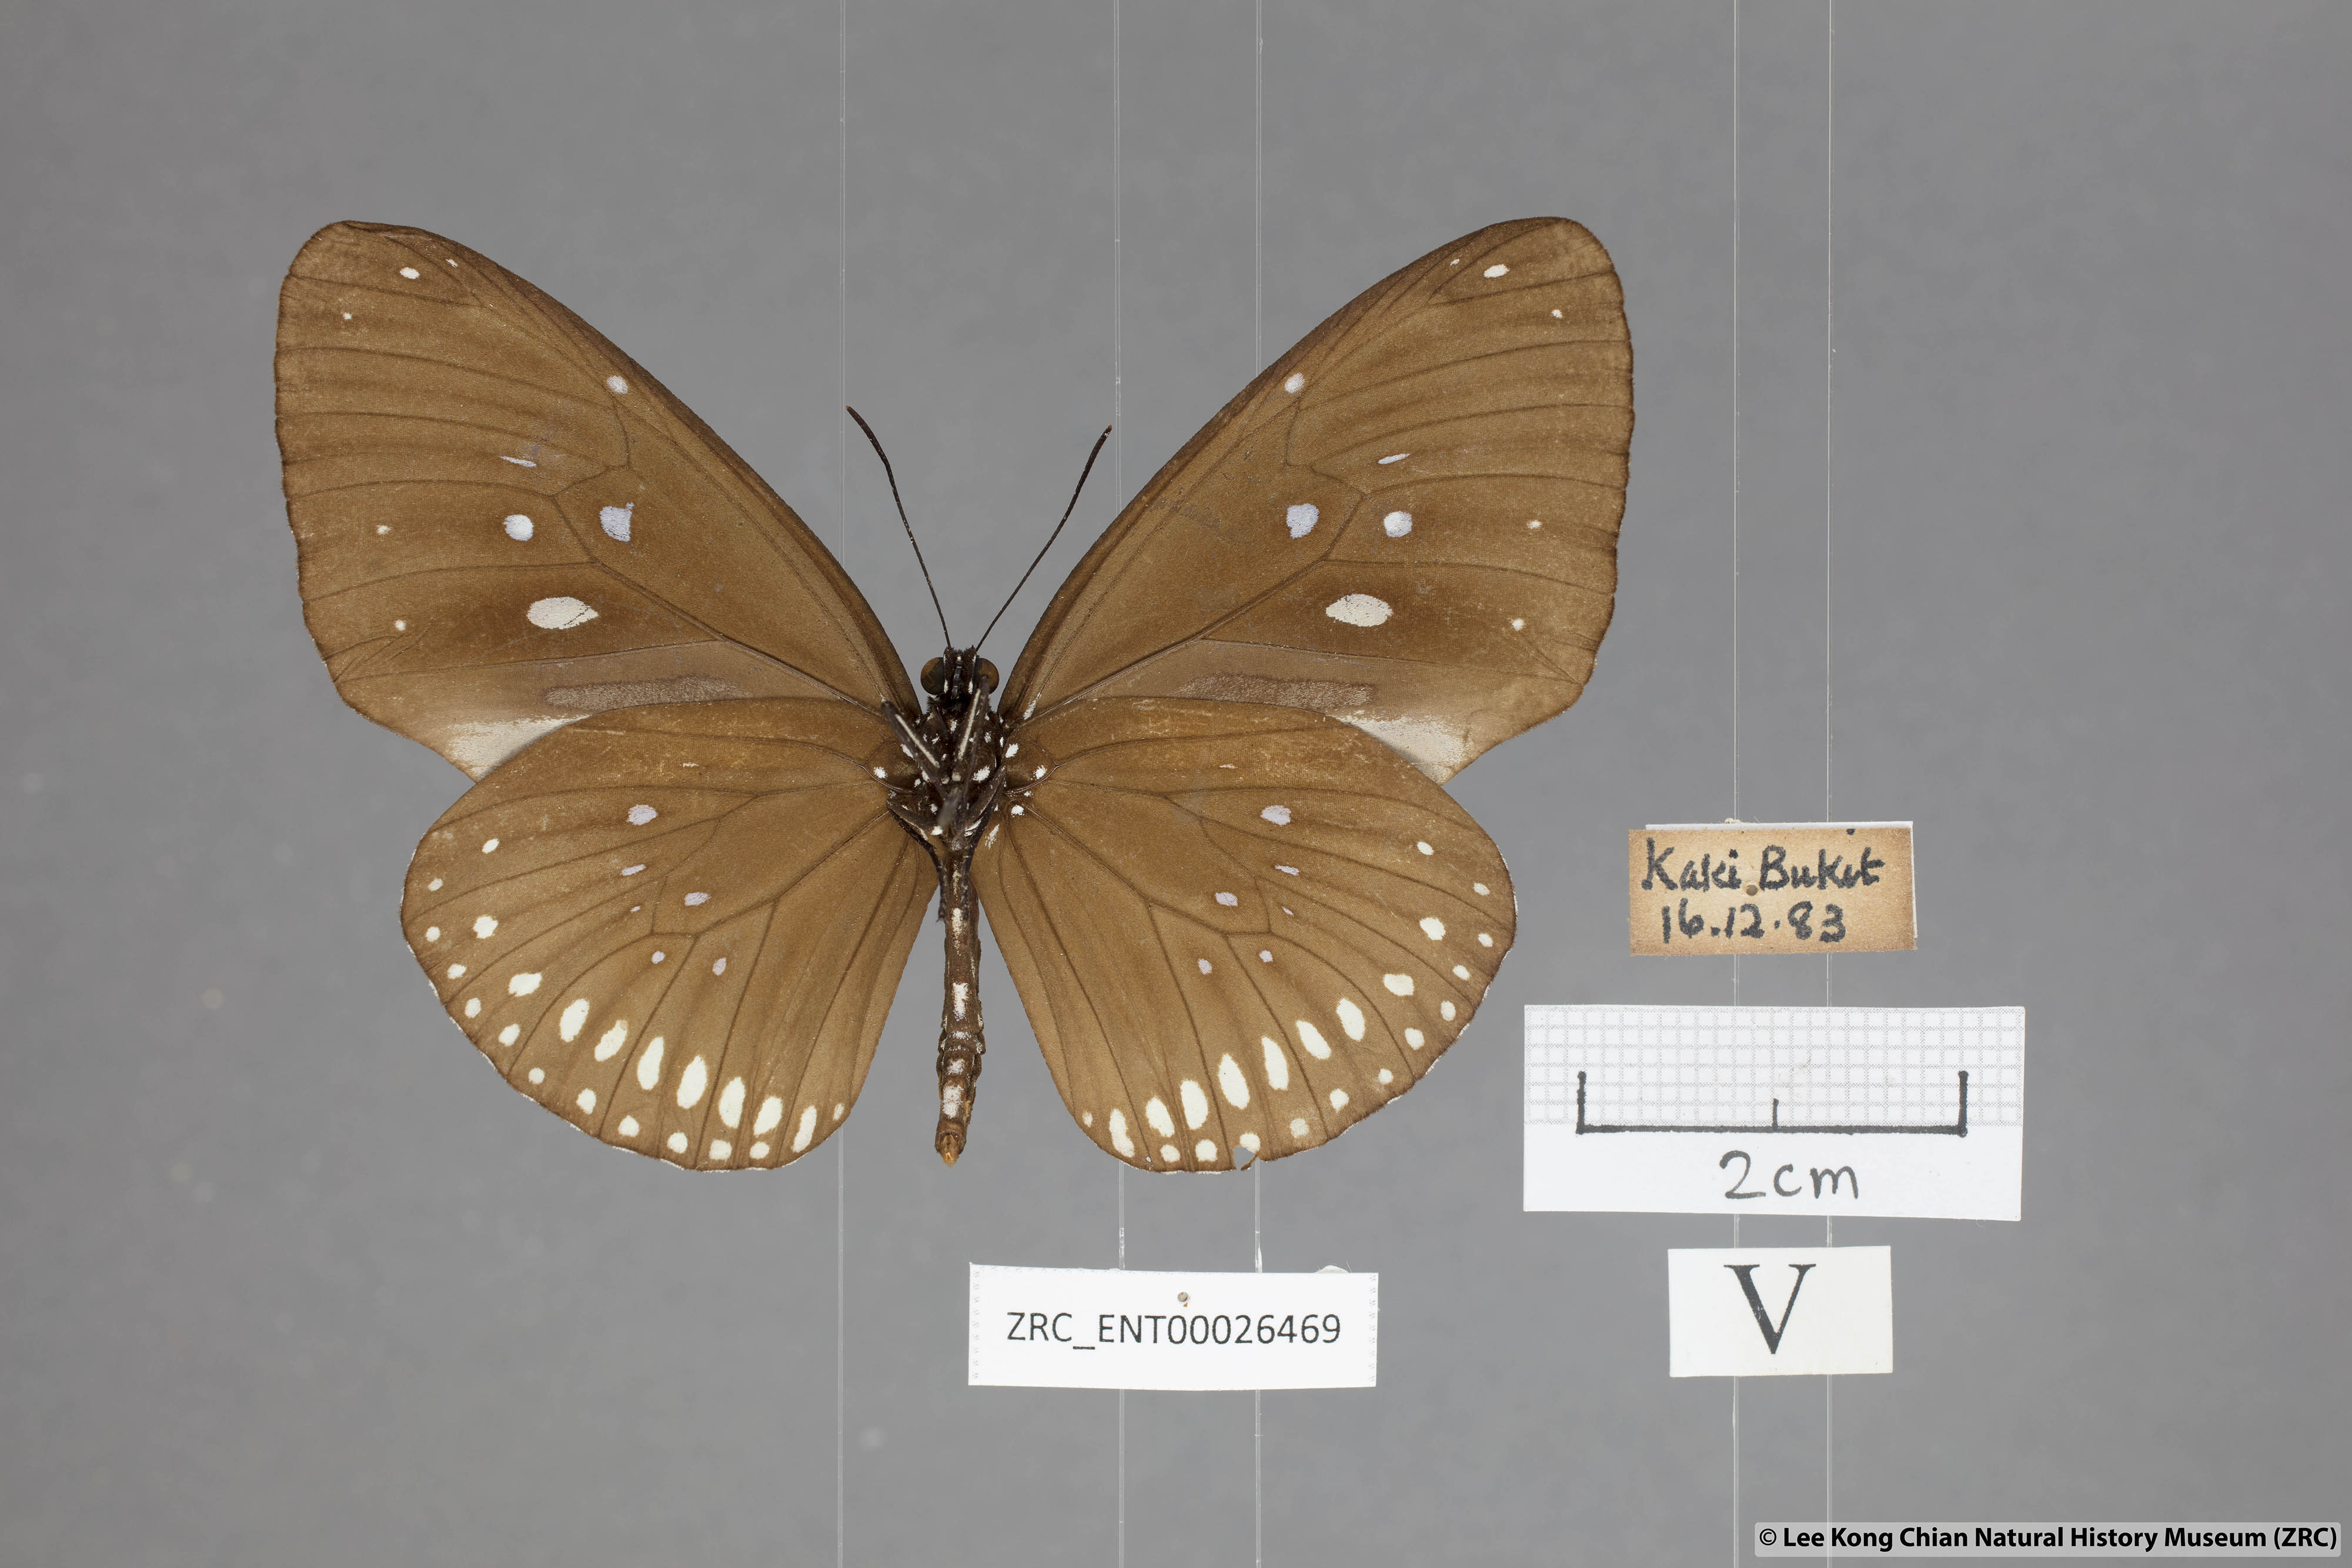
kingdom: Animalia
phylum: Arthropoda
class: Insecta
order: Lepidoptera
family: Nymphalidae
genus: Euploea
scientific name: Euploea modesta
